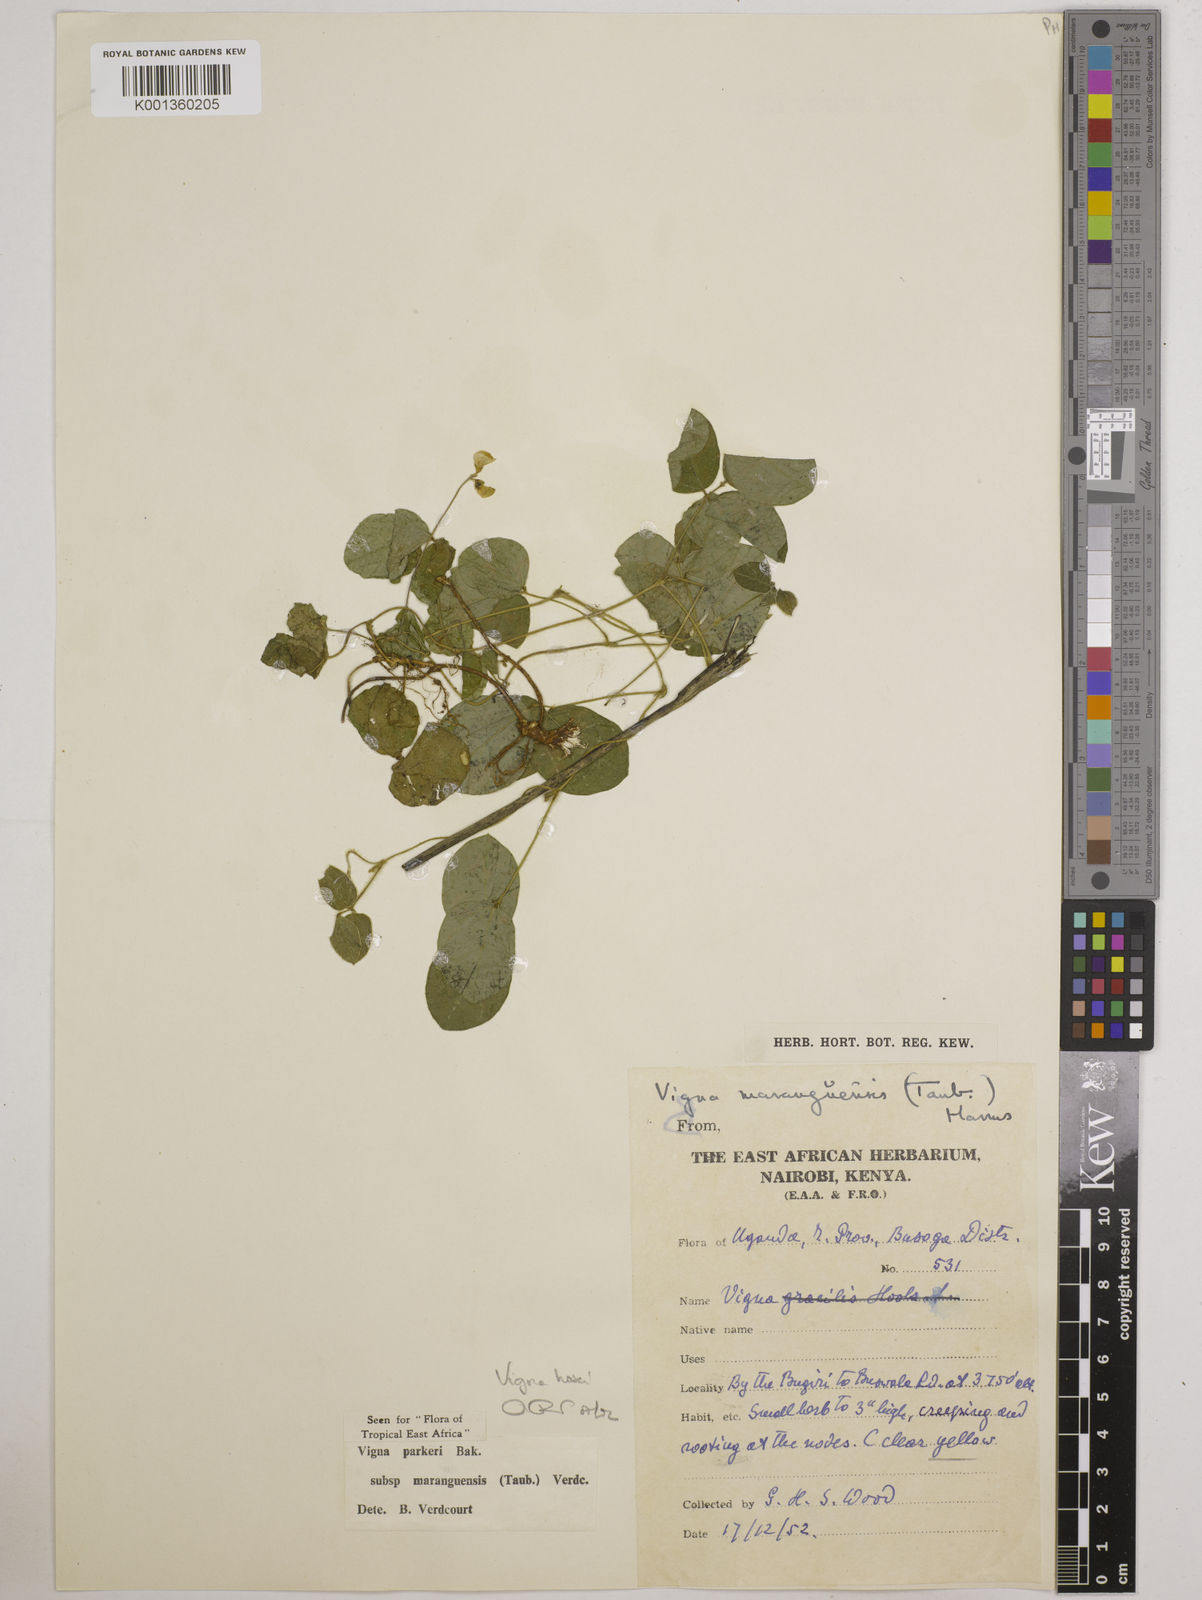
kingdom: Plantae
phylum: Tracheophyta
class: Magnoliopsida
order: Fabales
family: Fabaceae
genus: Vigna
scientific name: Vigna hosei
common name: Sarawak-bean
